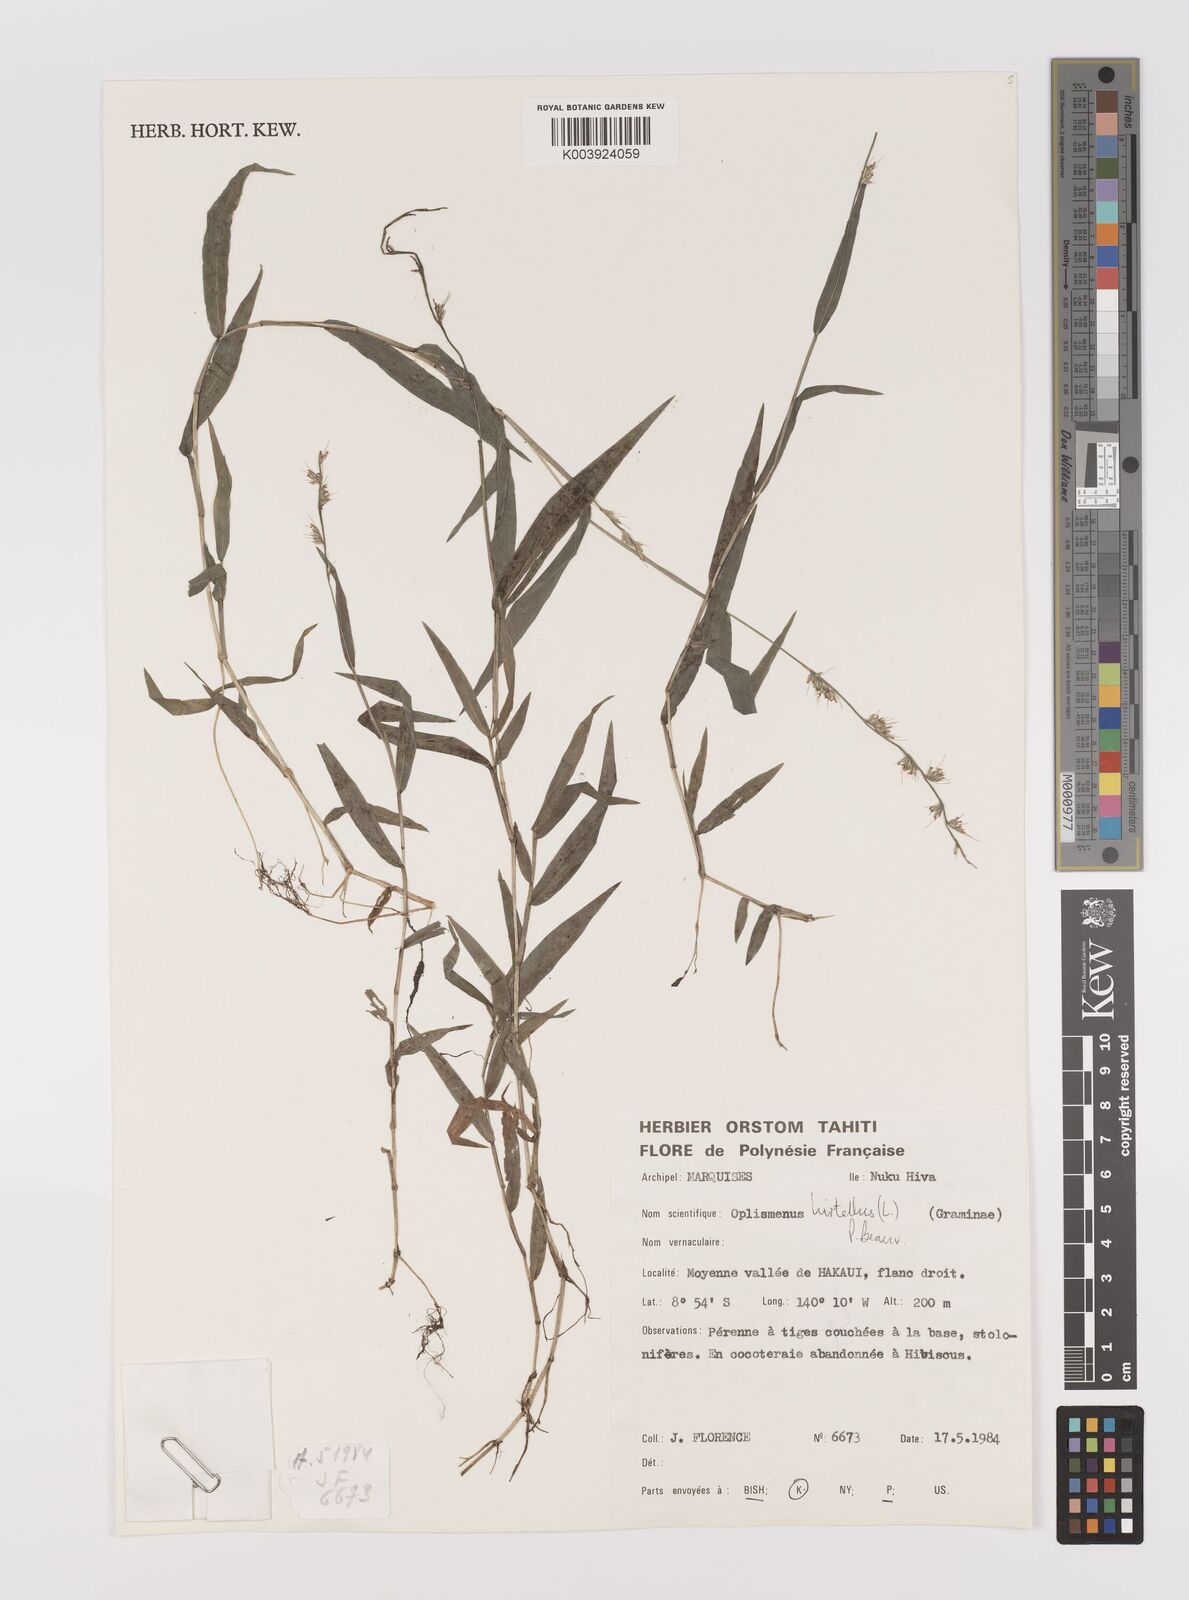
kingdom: Plantae
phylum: Tracheophyta
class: Liliopsida
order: Poales
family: Poaceae
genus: Oplismenus
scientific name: Oplismenus hirtellus
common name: Basketgrass
